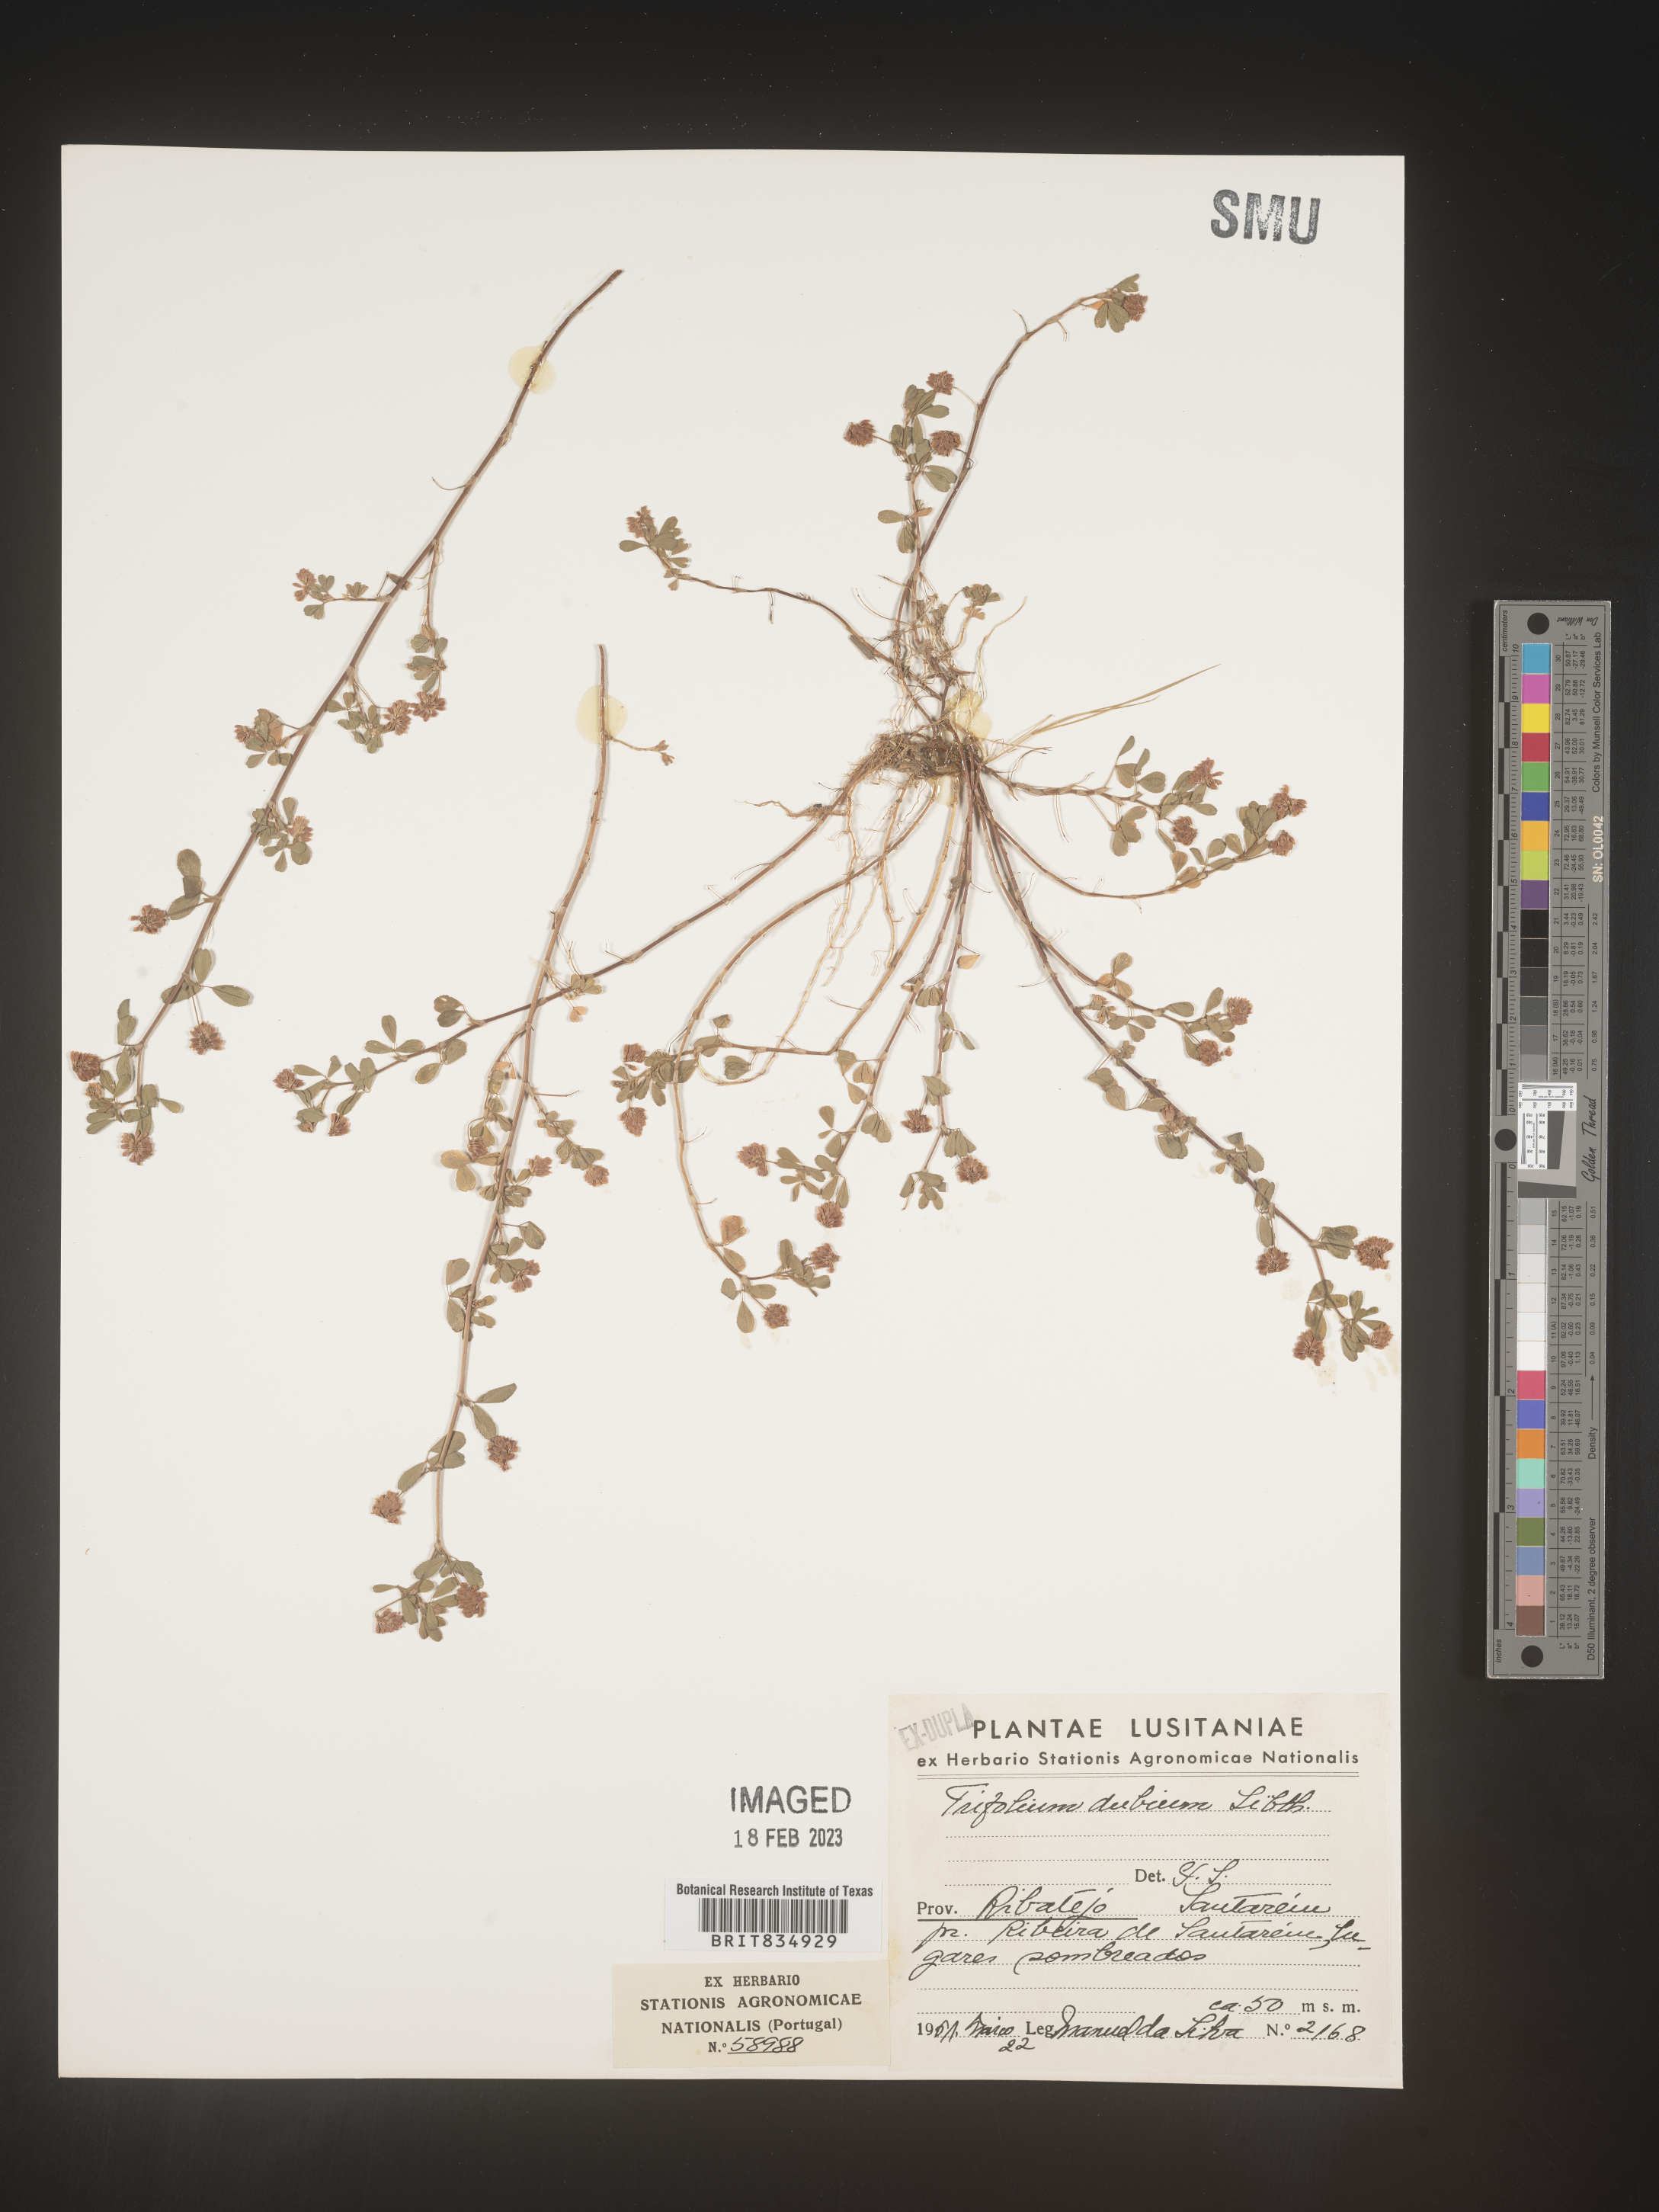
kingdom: Plantae
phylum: Tracheophyta
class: Magnoliopsida
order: Fabales
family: Fabaceae
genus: Trifolium
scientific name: Trifolium
